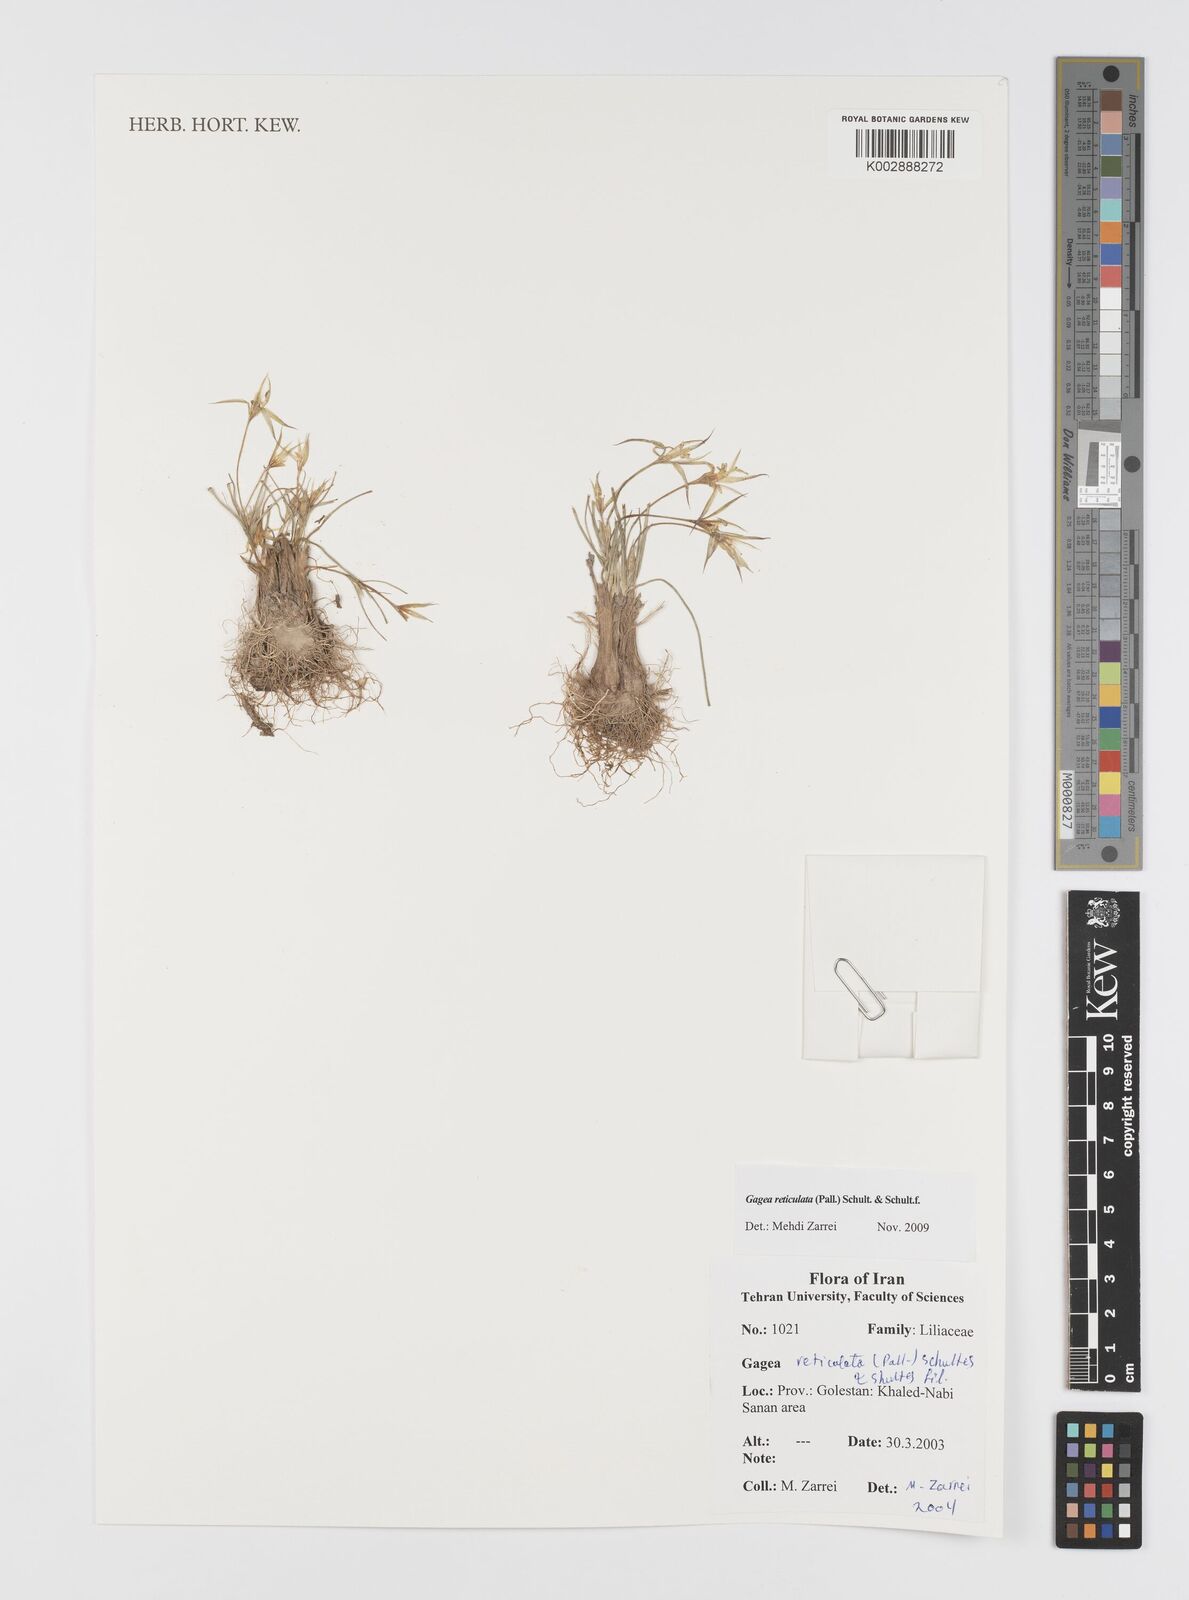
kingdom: Plantae
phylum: Tracheophyta
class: Liliopsida
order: Liliales
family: Liliaceae
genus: Gagea
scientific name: Gagea reticulata
